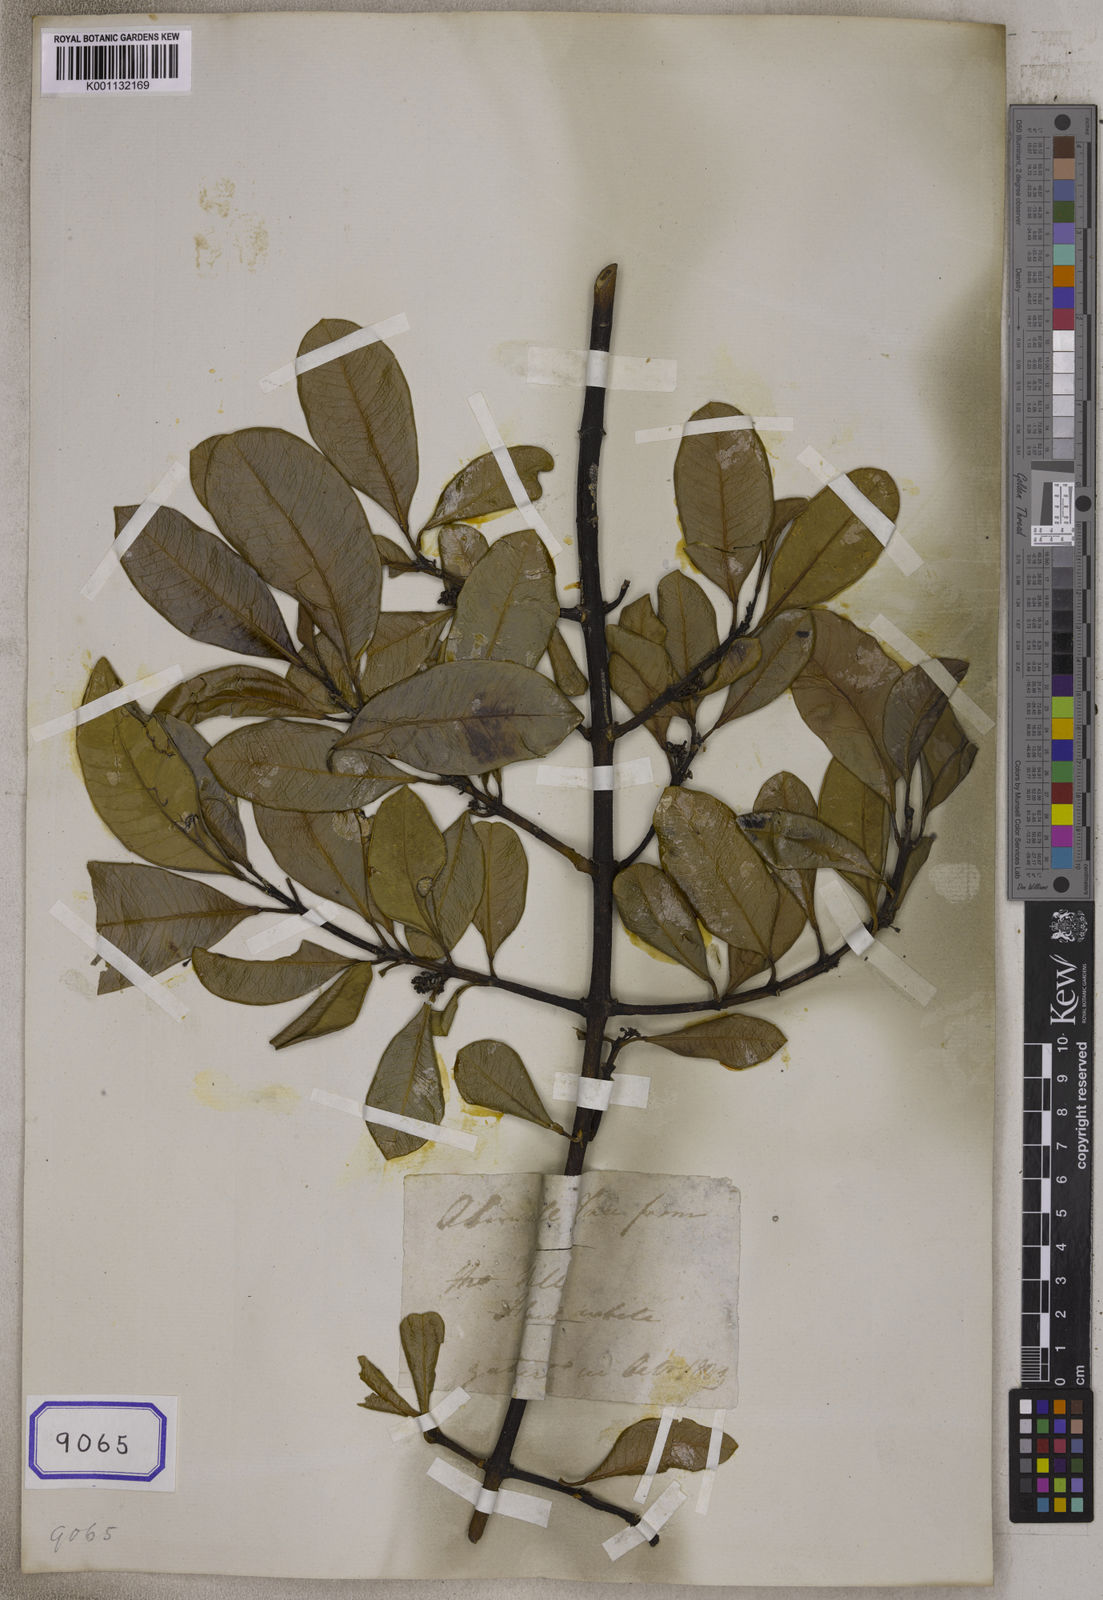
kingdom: Plantae
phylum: Tracheophyta
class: Magnoliopsida
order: Gentianales
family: Apocynaceae
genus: Melodinus
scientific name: Melodinus orientalis
